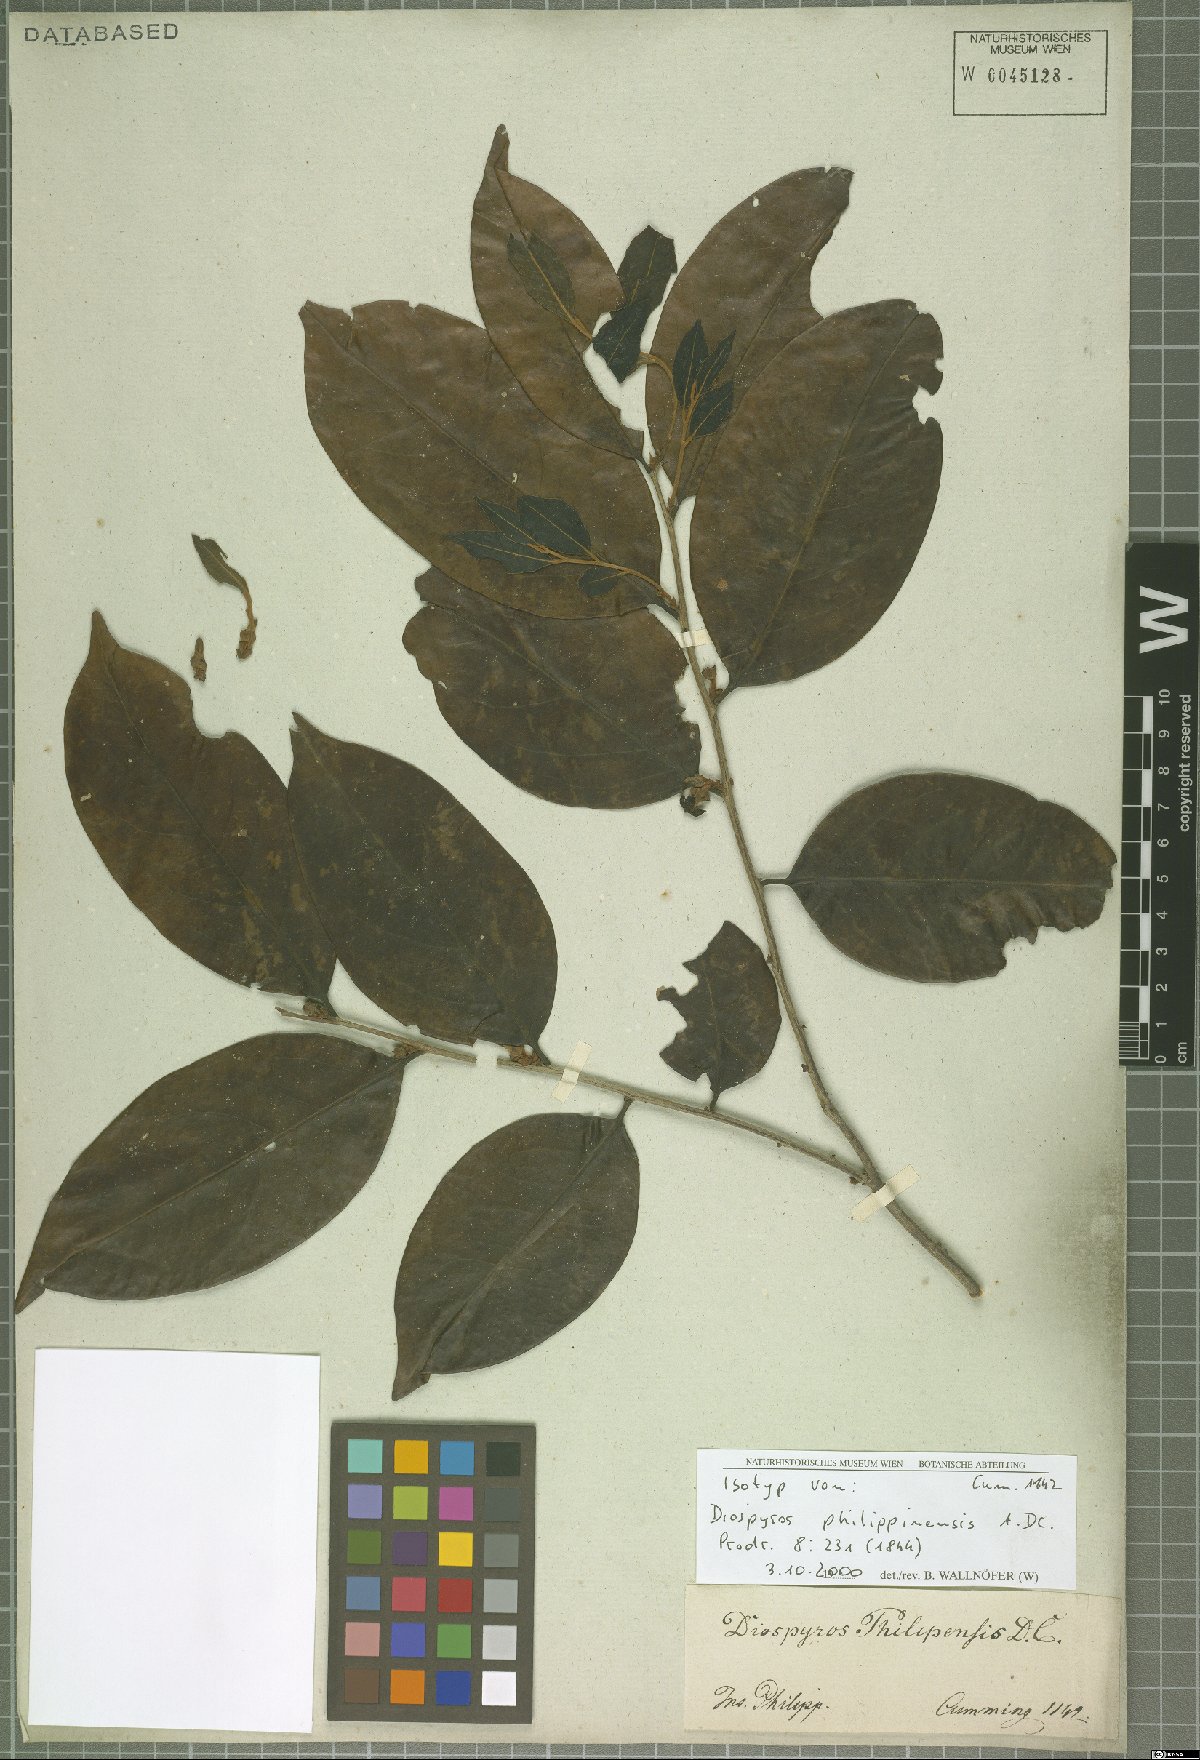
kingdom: Plantae
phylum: Tracheophyta
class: Magnoliopsida
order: Ericales
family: Ebenaceae
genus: Diospyros
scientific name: Diospyros philippinensis
